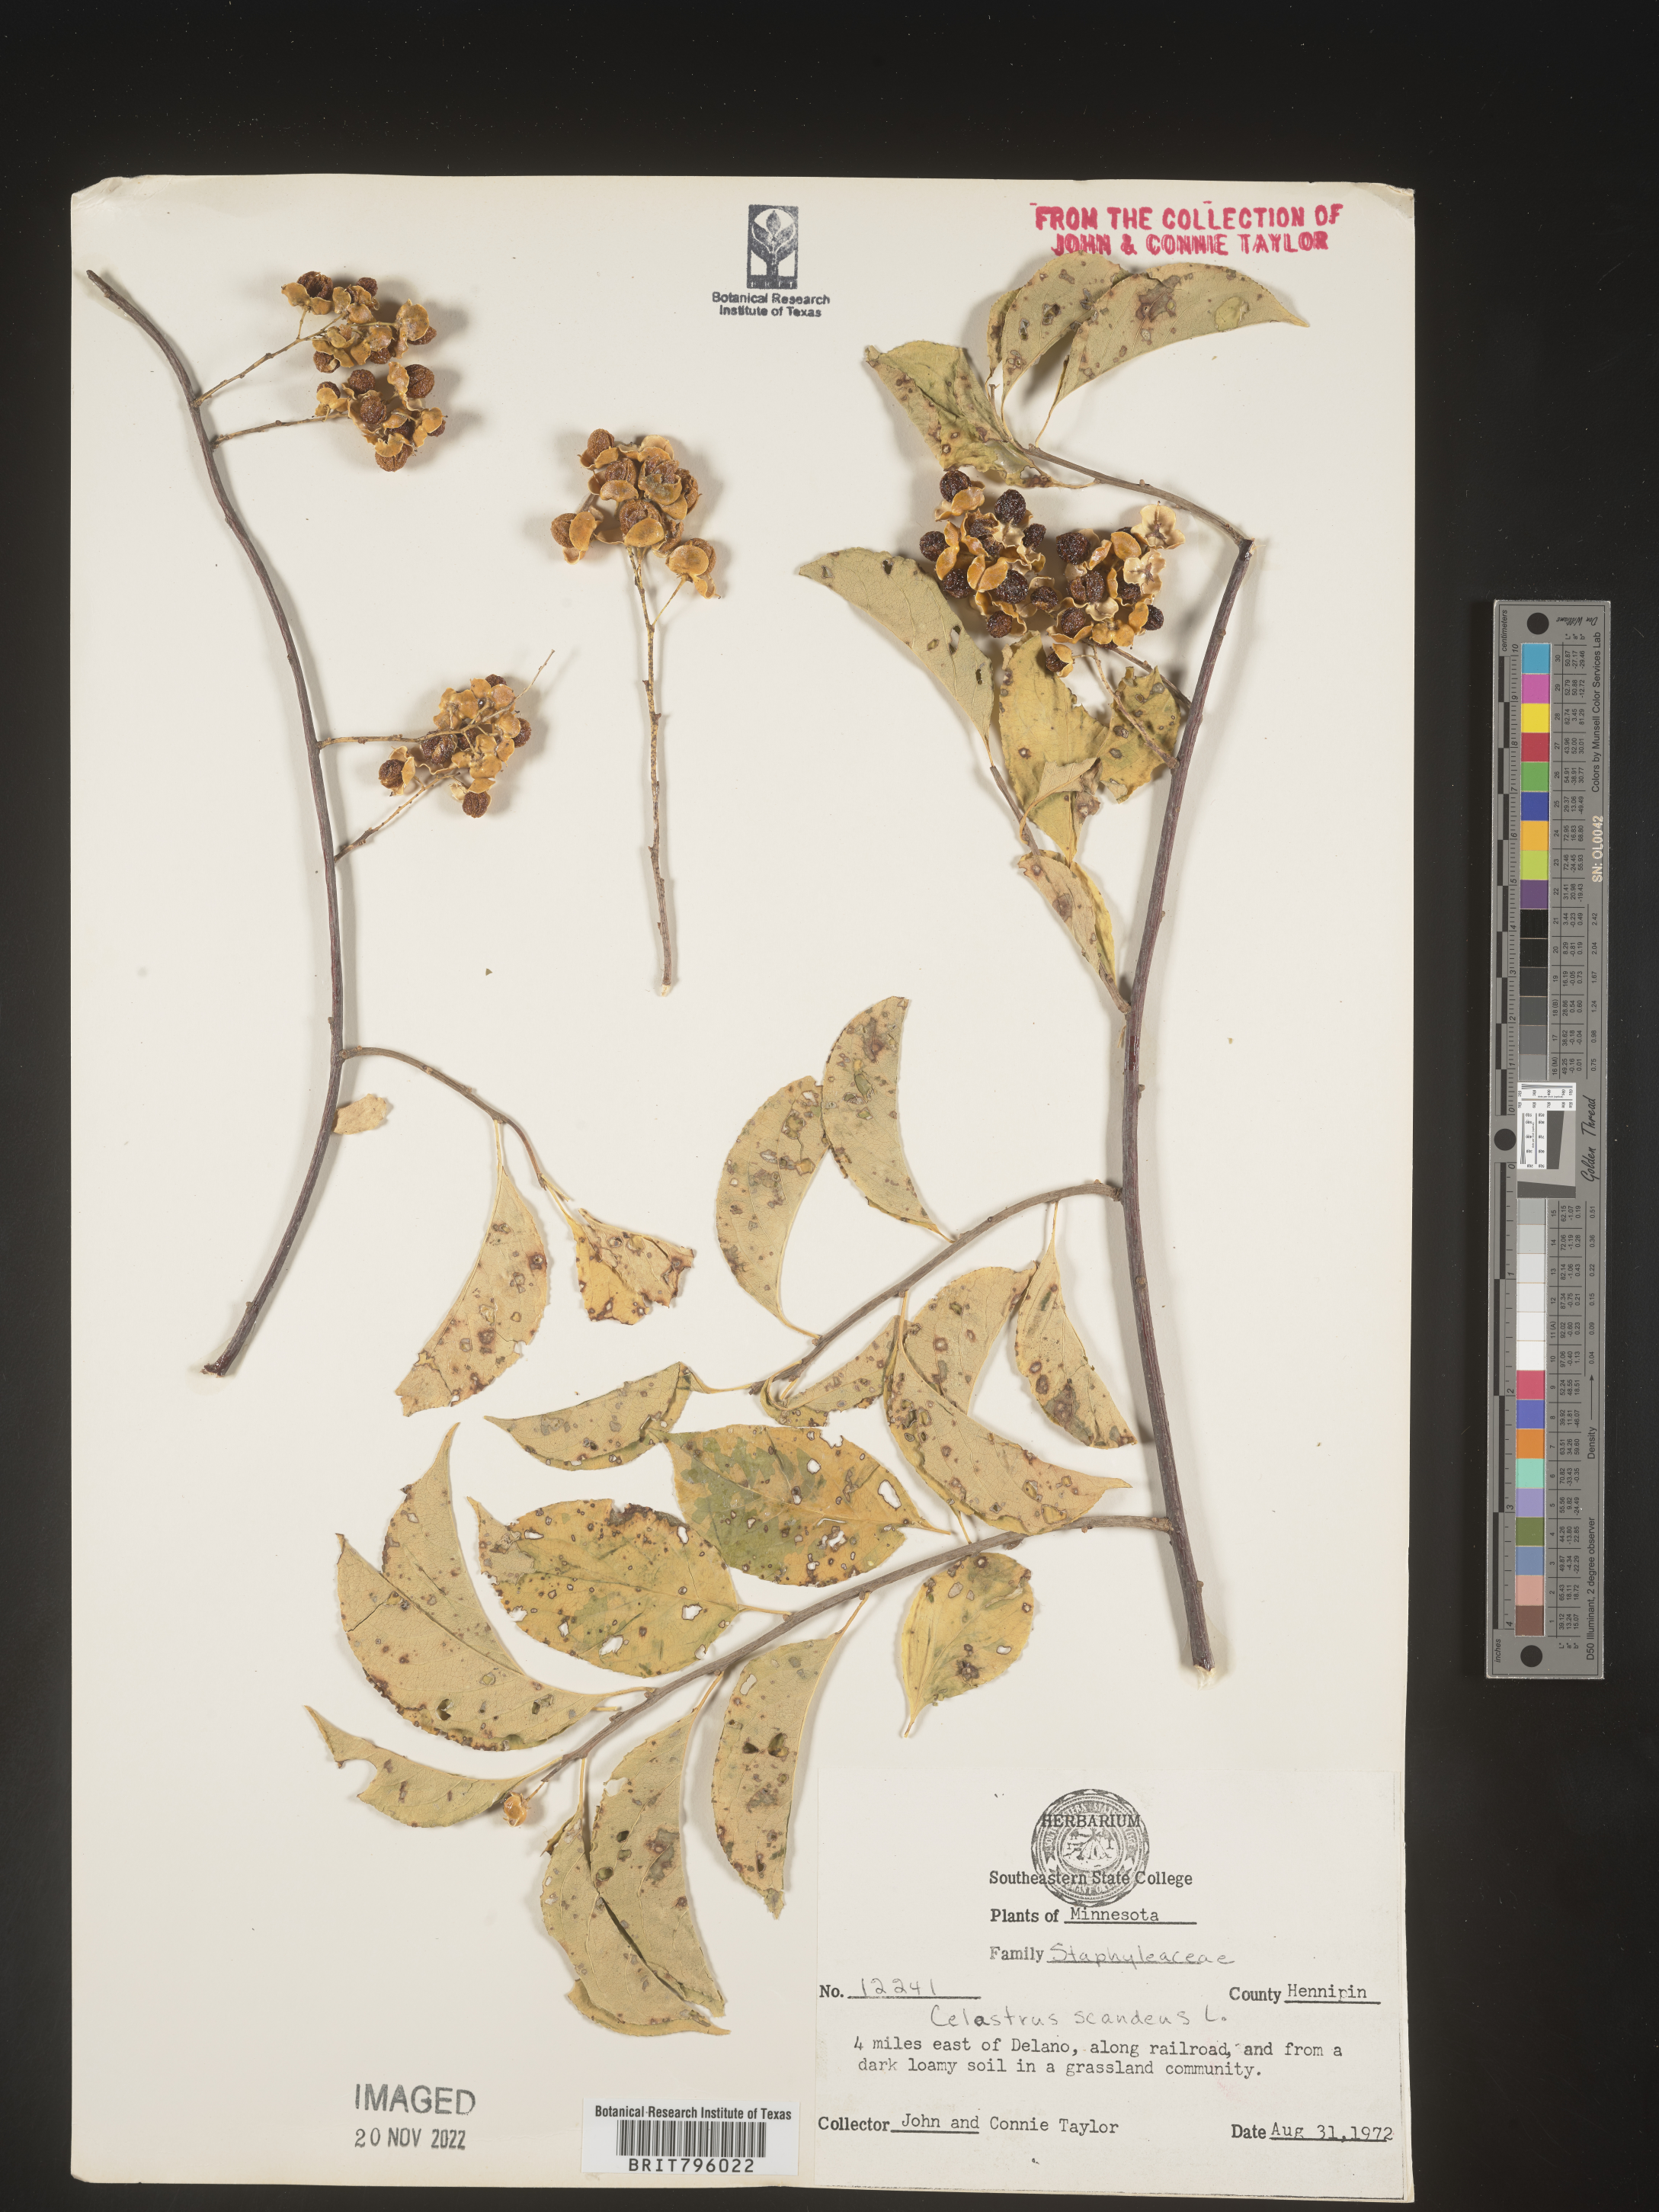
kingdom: Plantae
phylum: Tracheophyta
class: Magnoliopsida
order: Celastrales
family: Celastraceae
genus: Celastrus
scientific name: Celastrus scandens
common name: American bittersweet
